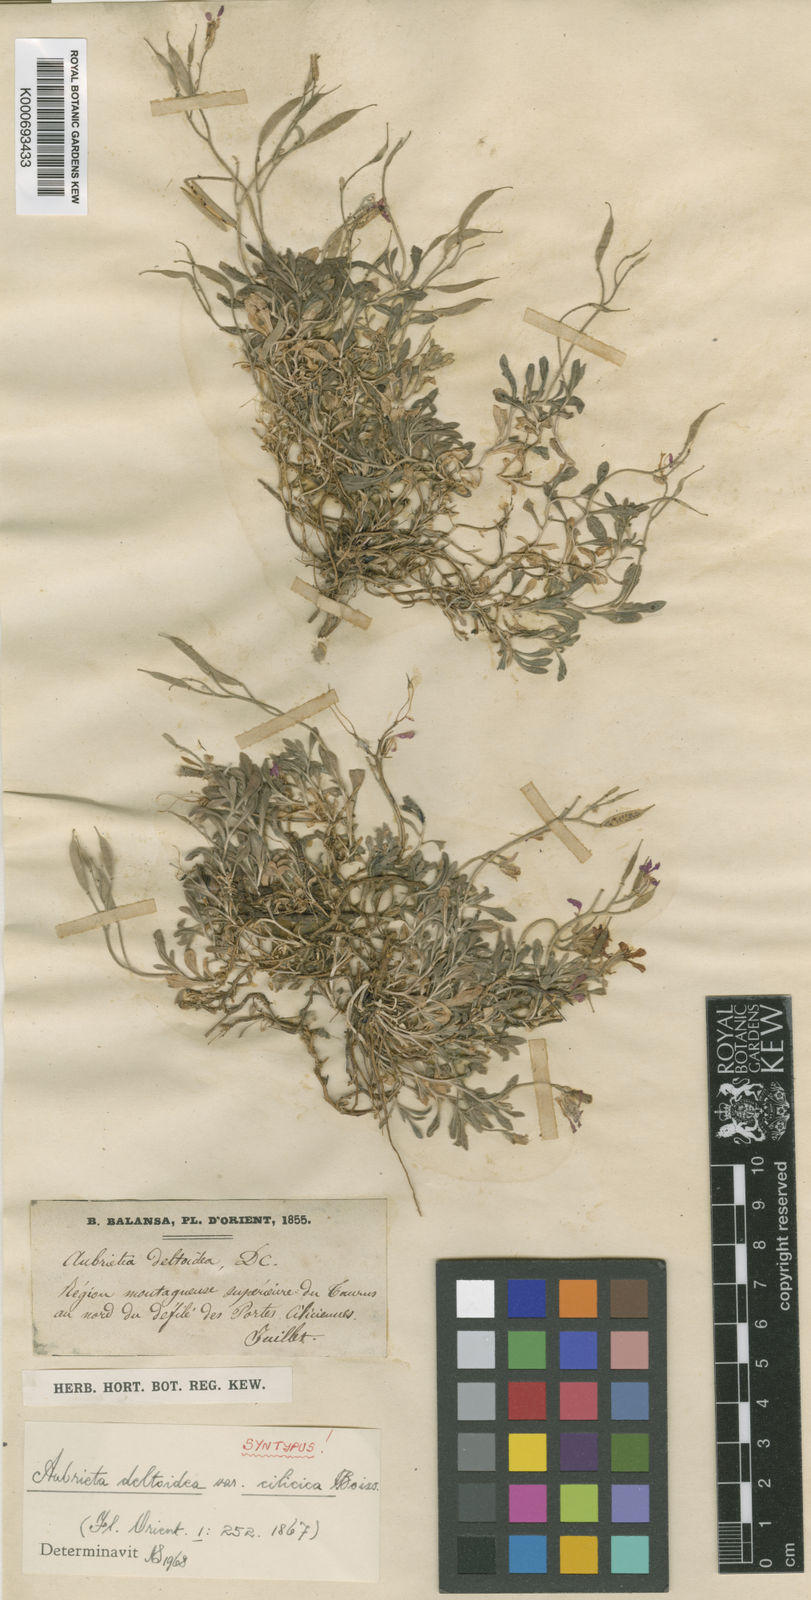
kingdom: Plantae
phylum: Tracheophyta
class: Magnoliopsida
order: Brassicales
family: Brassicaceae
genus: Aubrieta
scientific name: Aubrieta deltoidea
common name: Aubretia
